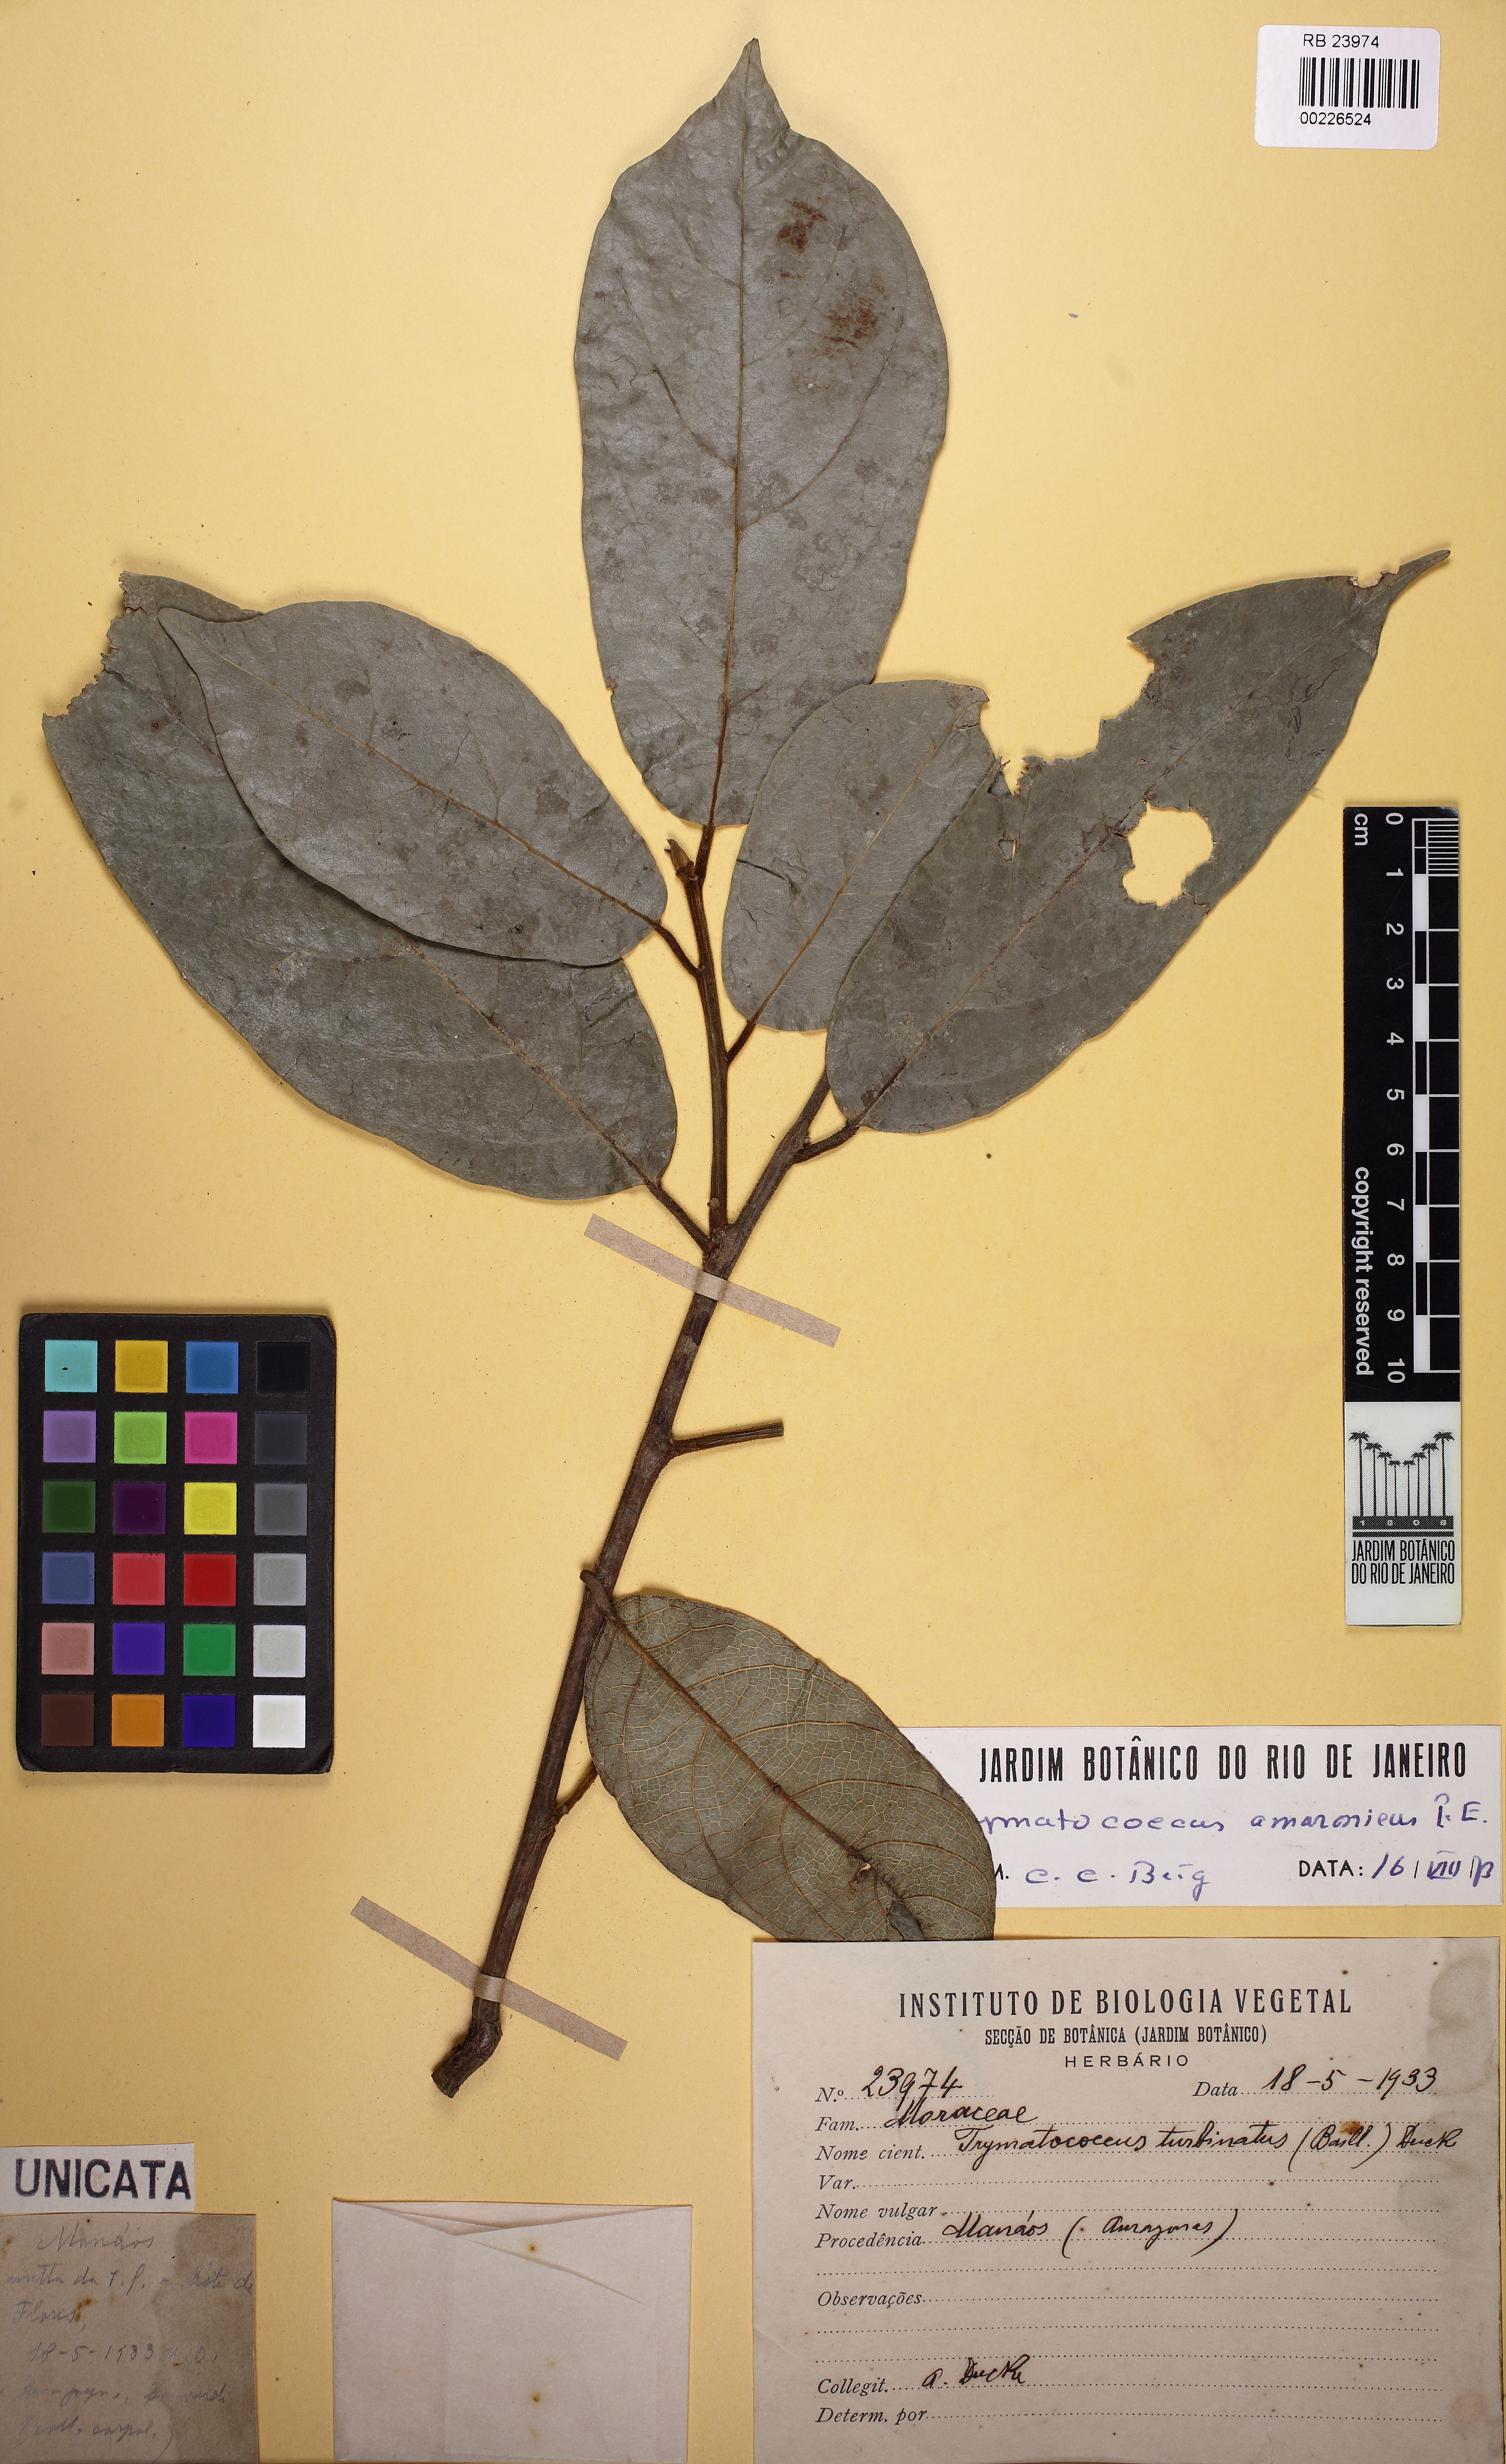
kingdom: Plantae
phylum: Tracheophyta
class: Magnoliopsida
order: Rosales
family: Moraceae
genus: Brosimum
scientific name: Brosimum amazonicum
